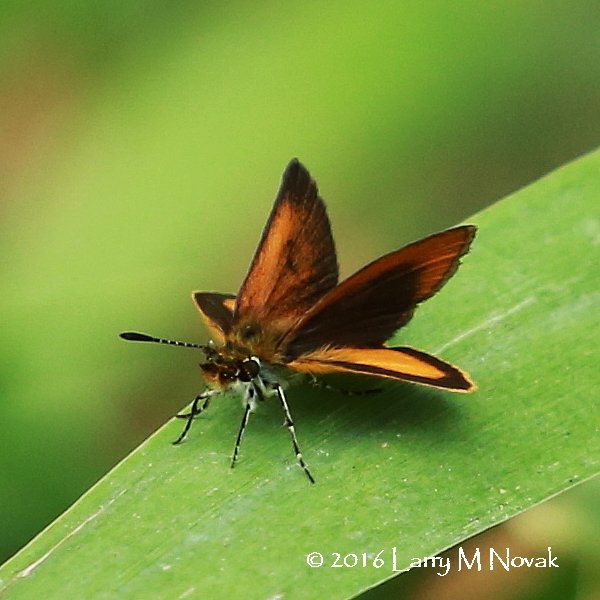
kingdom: Animalia
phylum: Arthropoda
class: Insecta
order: Lepidoptera
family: Hesperiidae
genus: Ancyloxypha
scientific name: Ancyloxypha numitor
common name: Least Skipper
